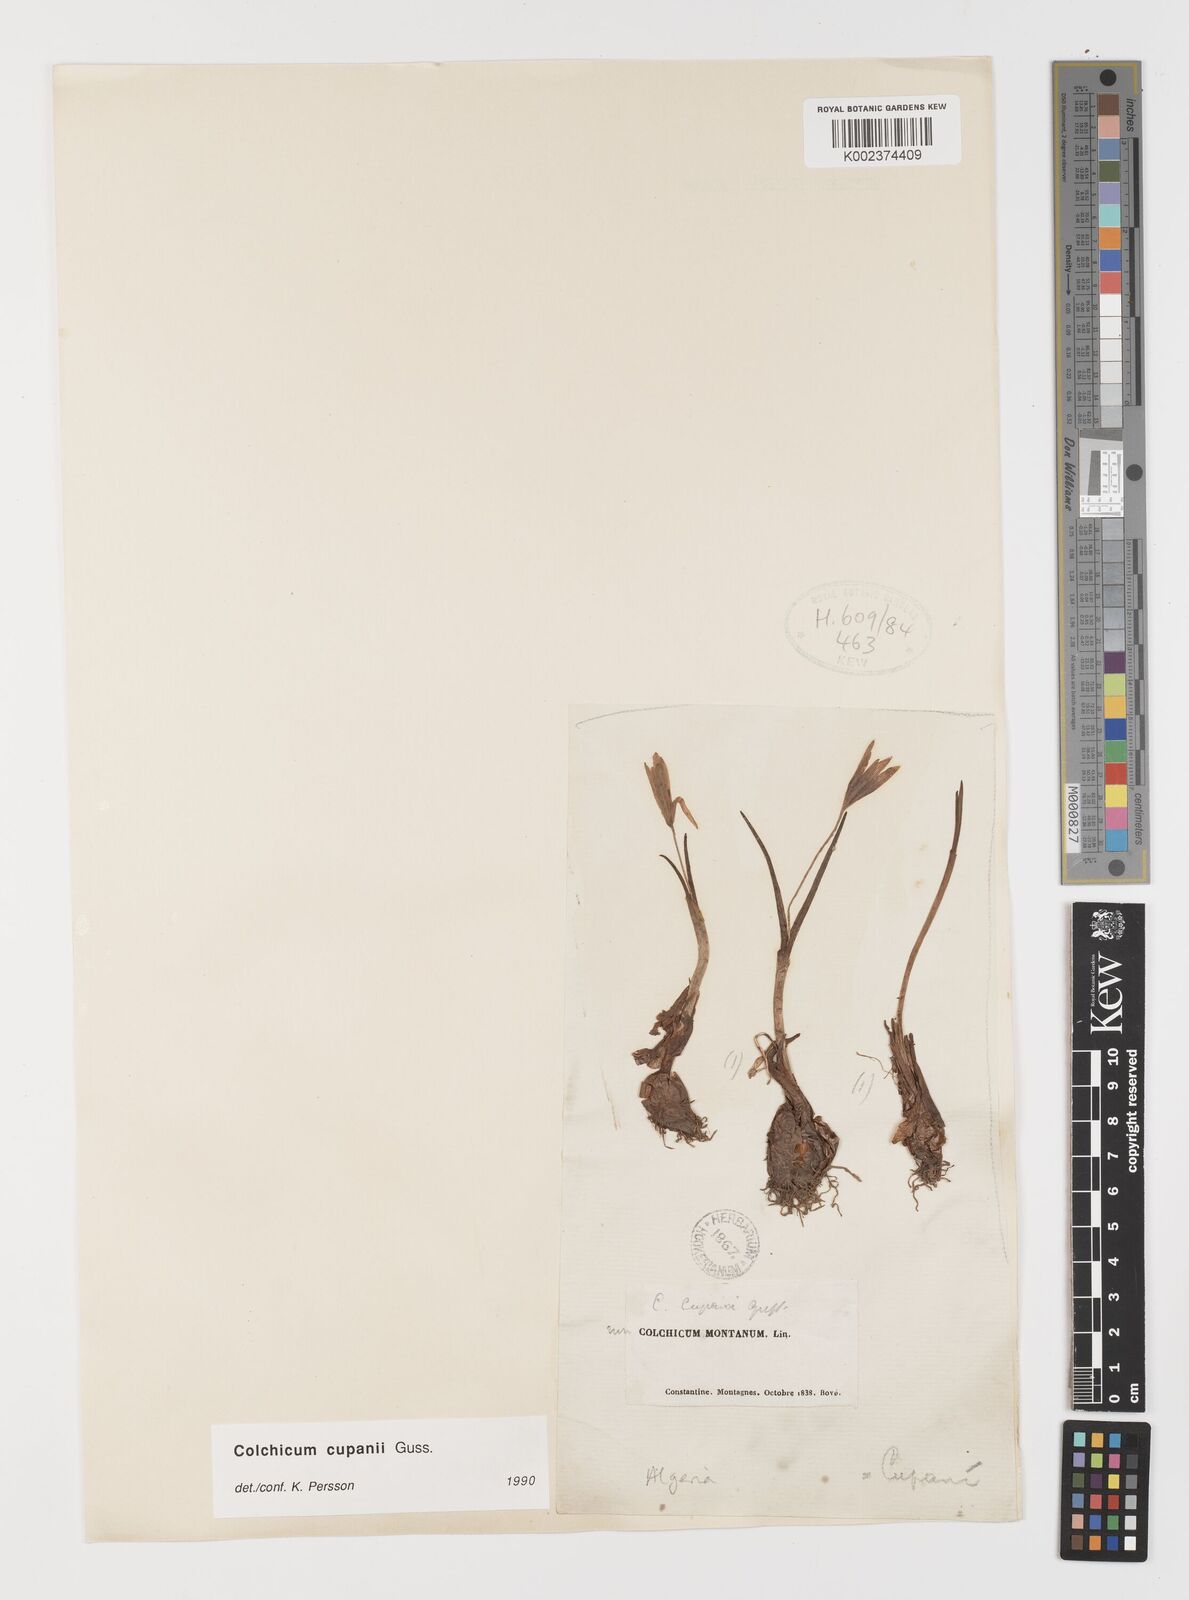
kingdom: Plantae
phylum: Tracheophyta
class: Liliopsida
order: Liliales
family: Colchicaceae
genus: Colchicum
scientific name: Colchicum cupanii
